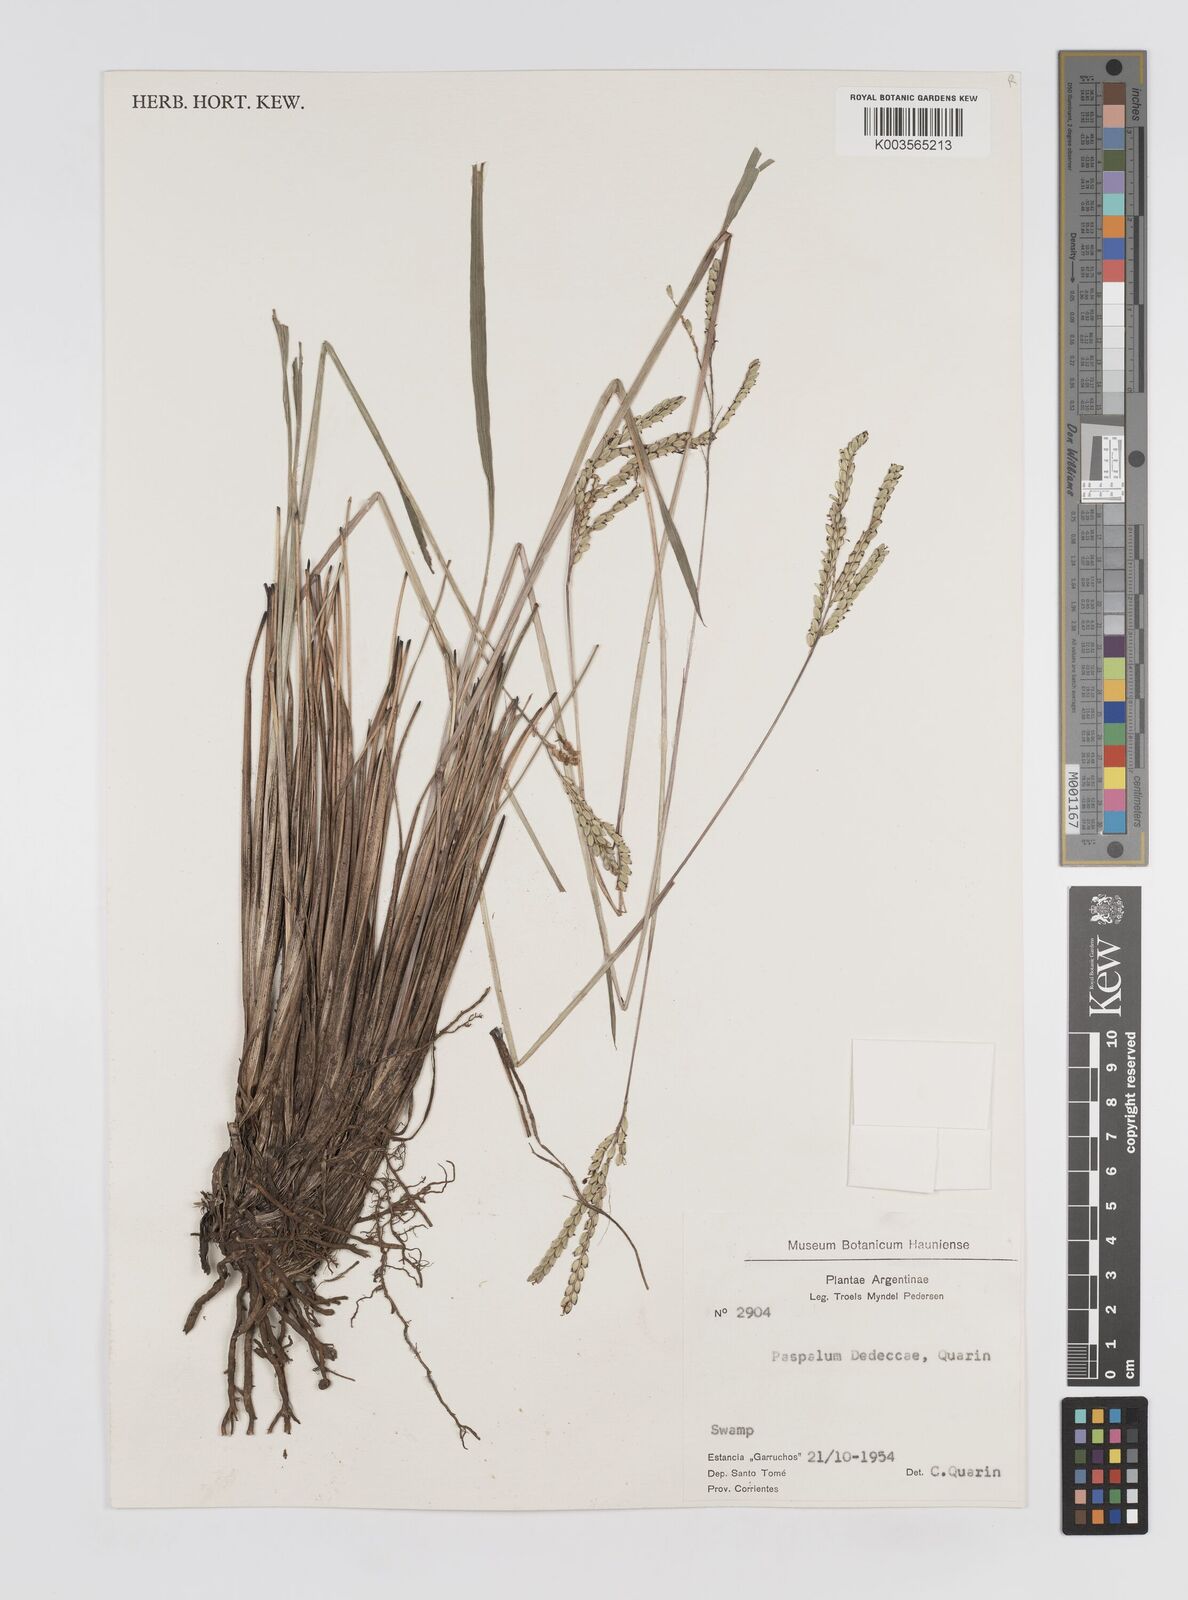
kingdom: Plantae
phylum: Tracheophyta
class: Liliopsida
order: Poales
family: Poaceae
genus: Paspalum
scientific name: Paspalum dedeccae
